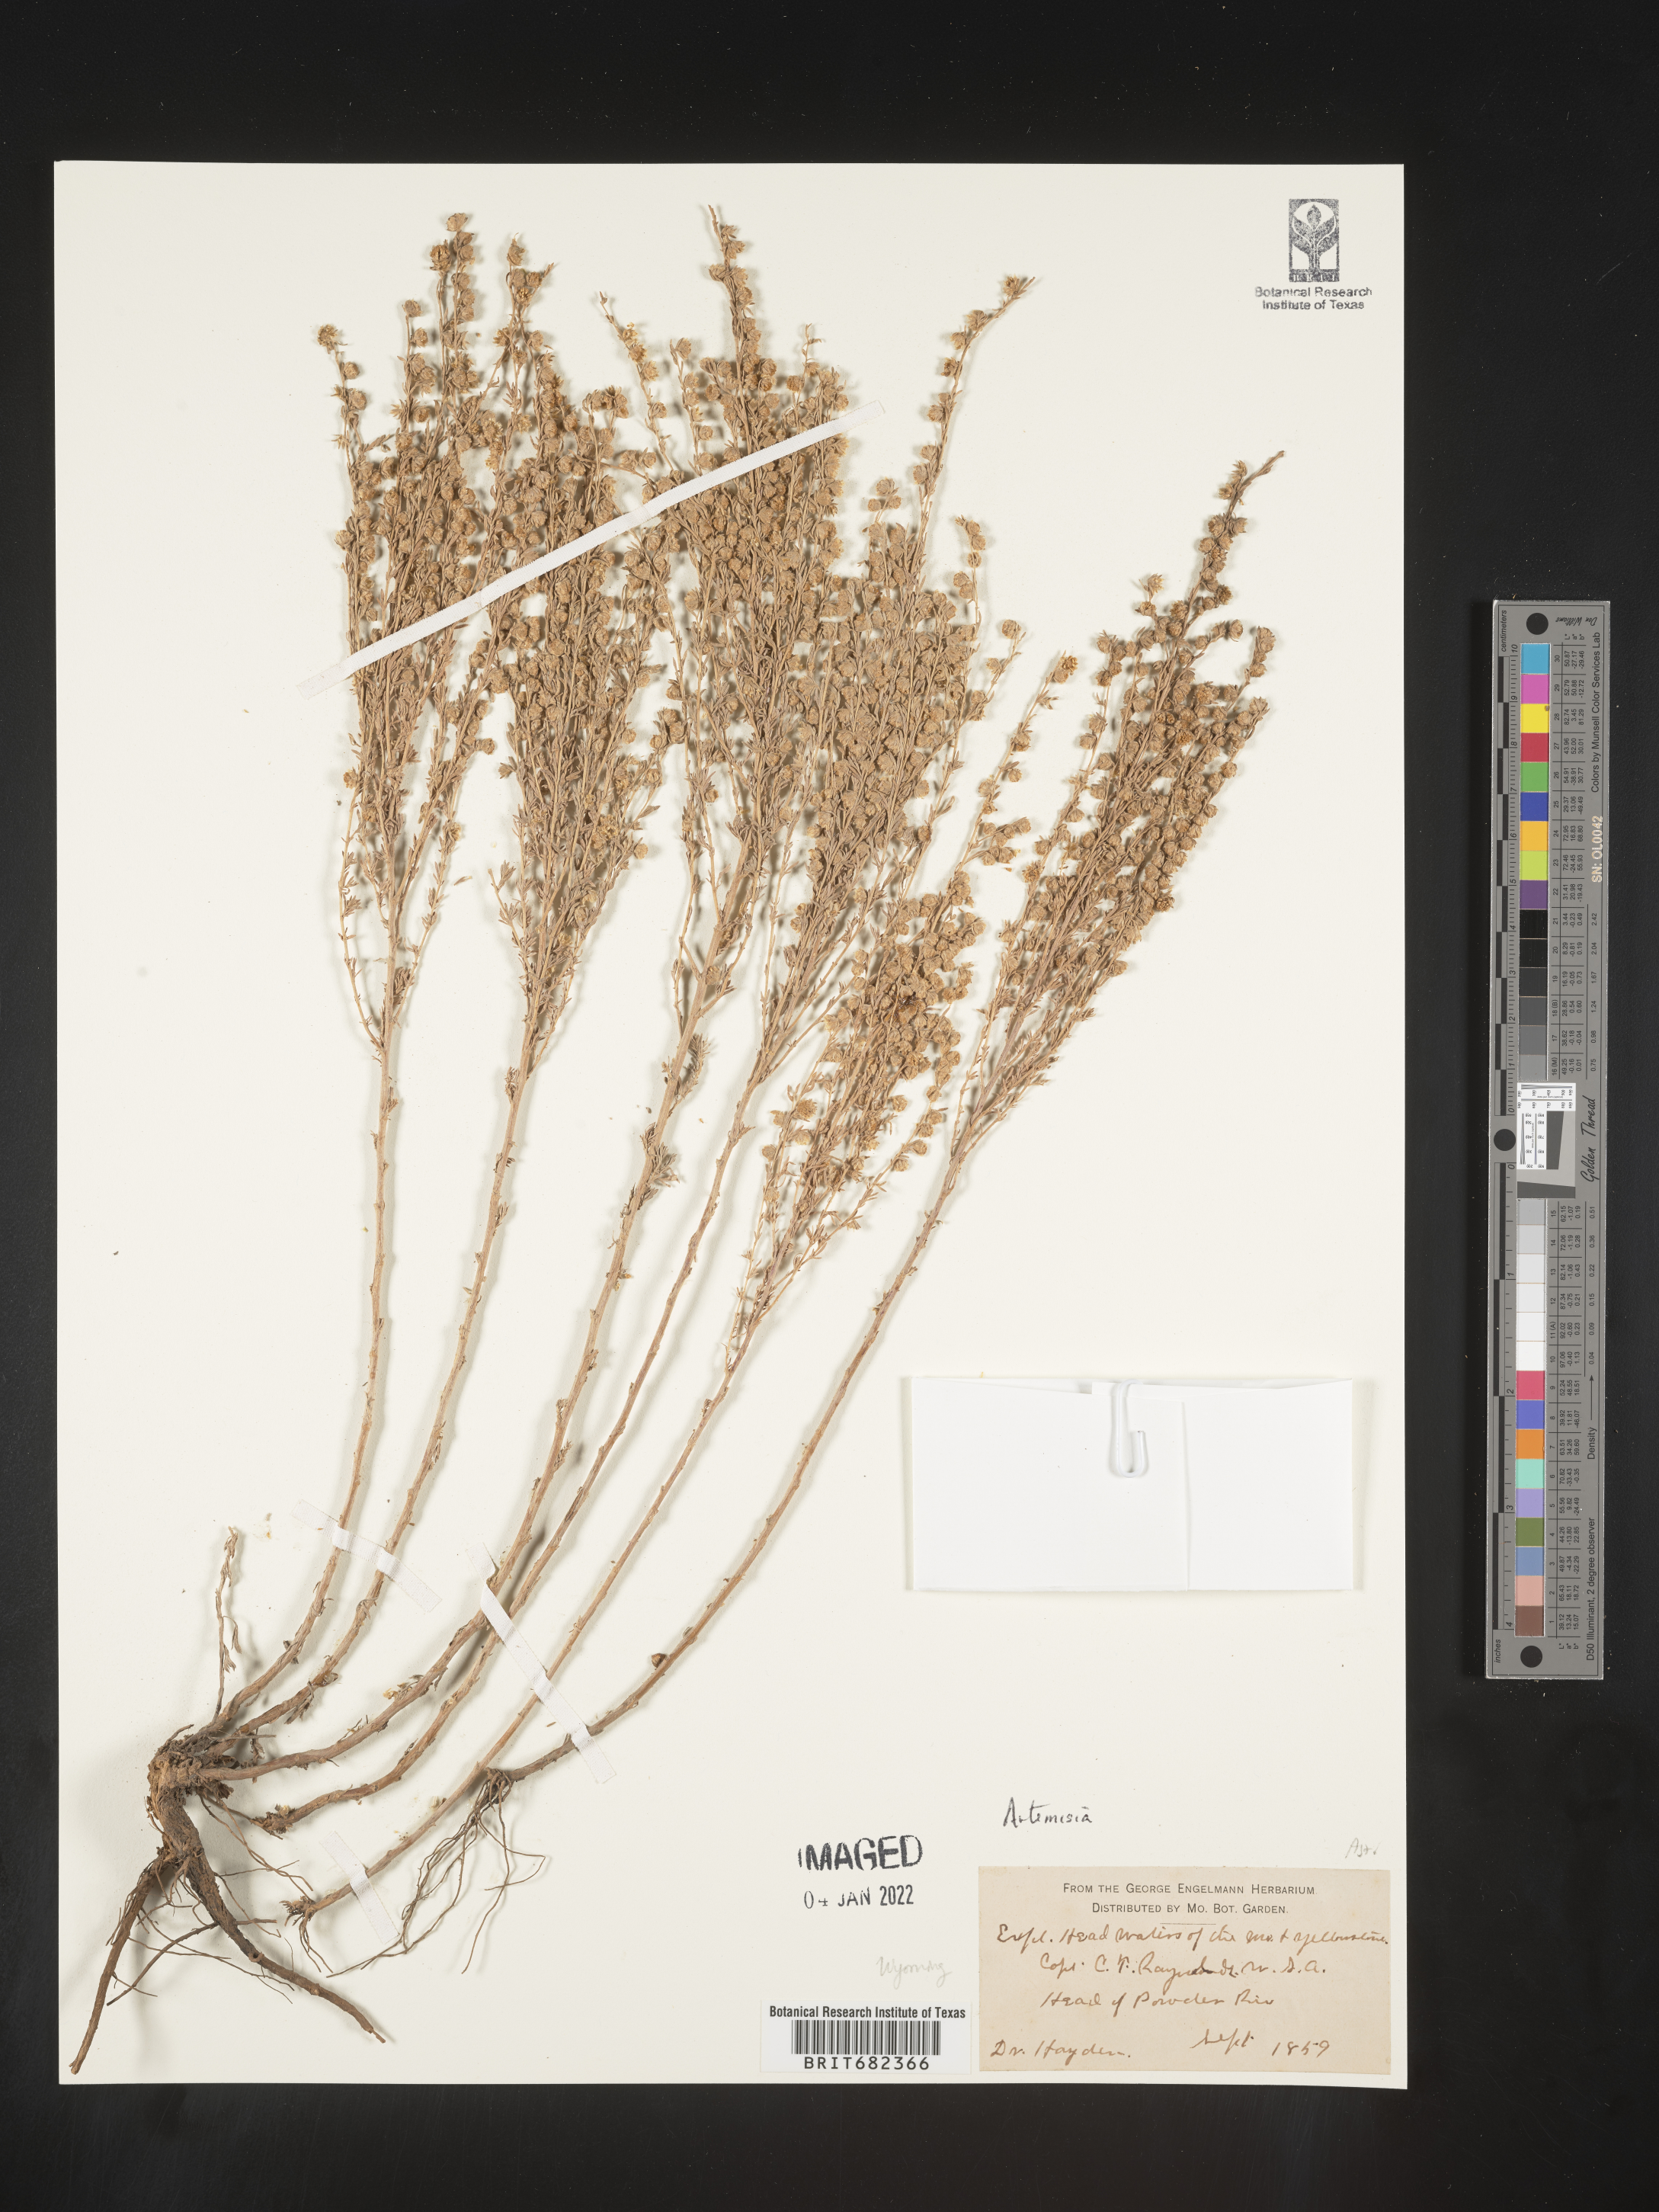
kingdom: Plantae
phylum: Tracheophyta
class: Magnoliopsida
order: Asterales
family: Asteraceae
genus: Artemisia
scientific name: Artemisia
